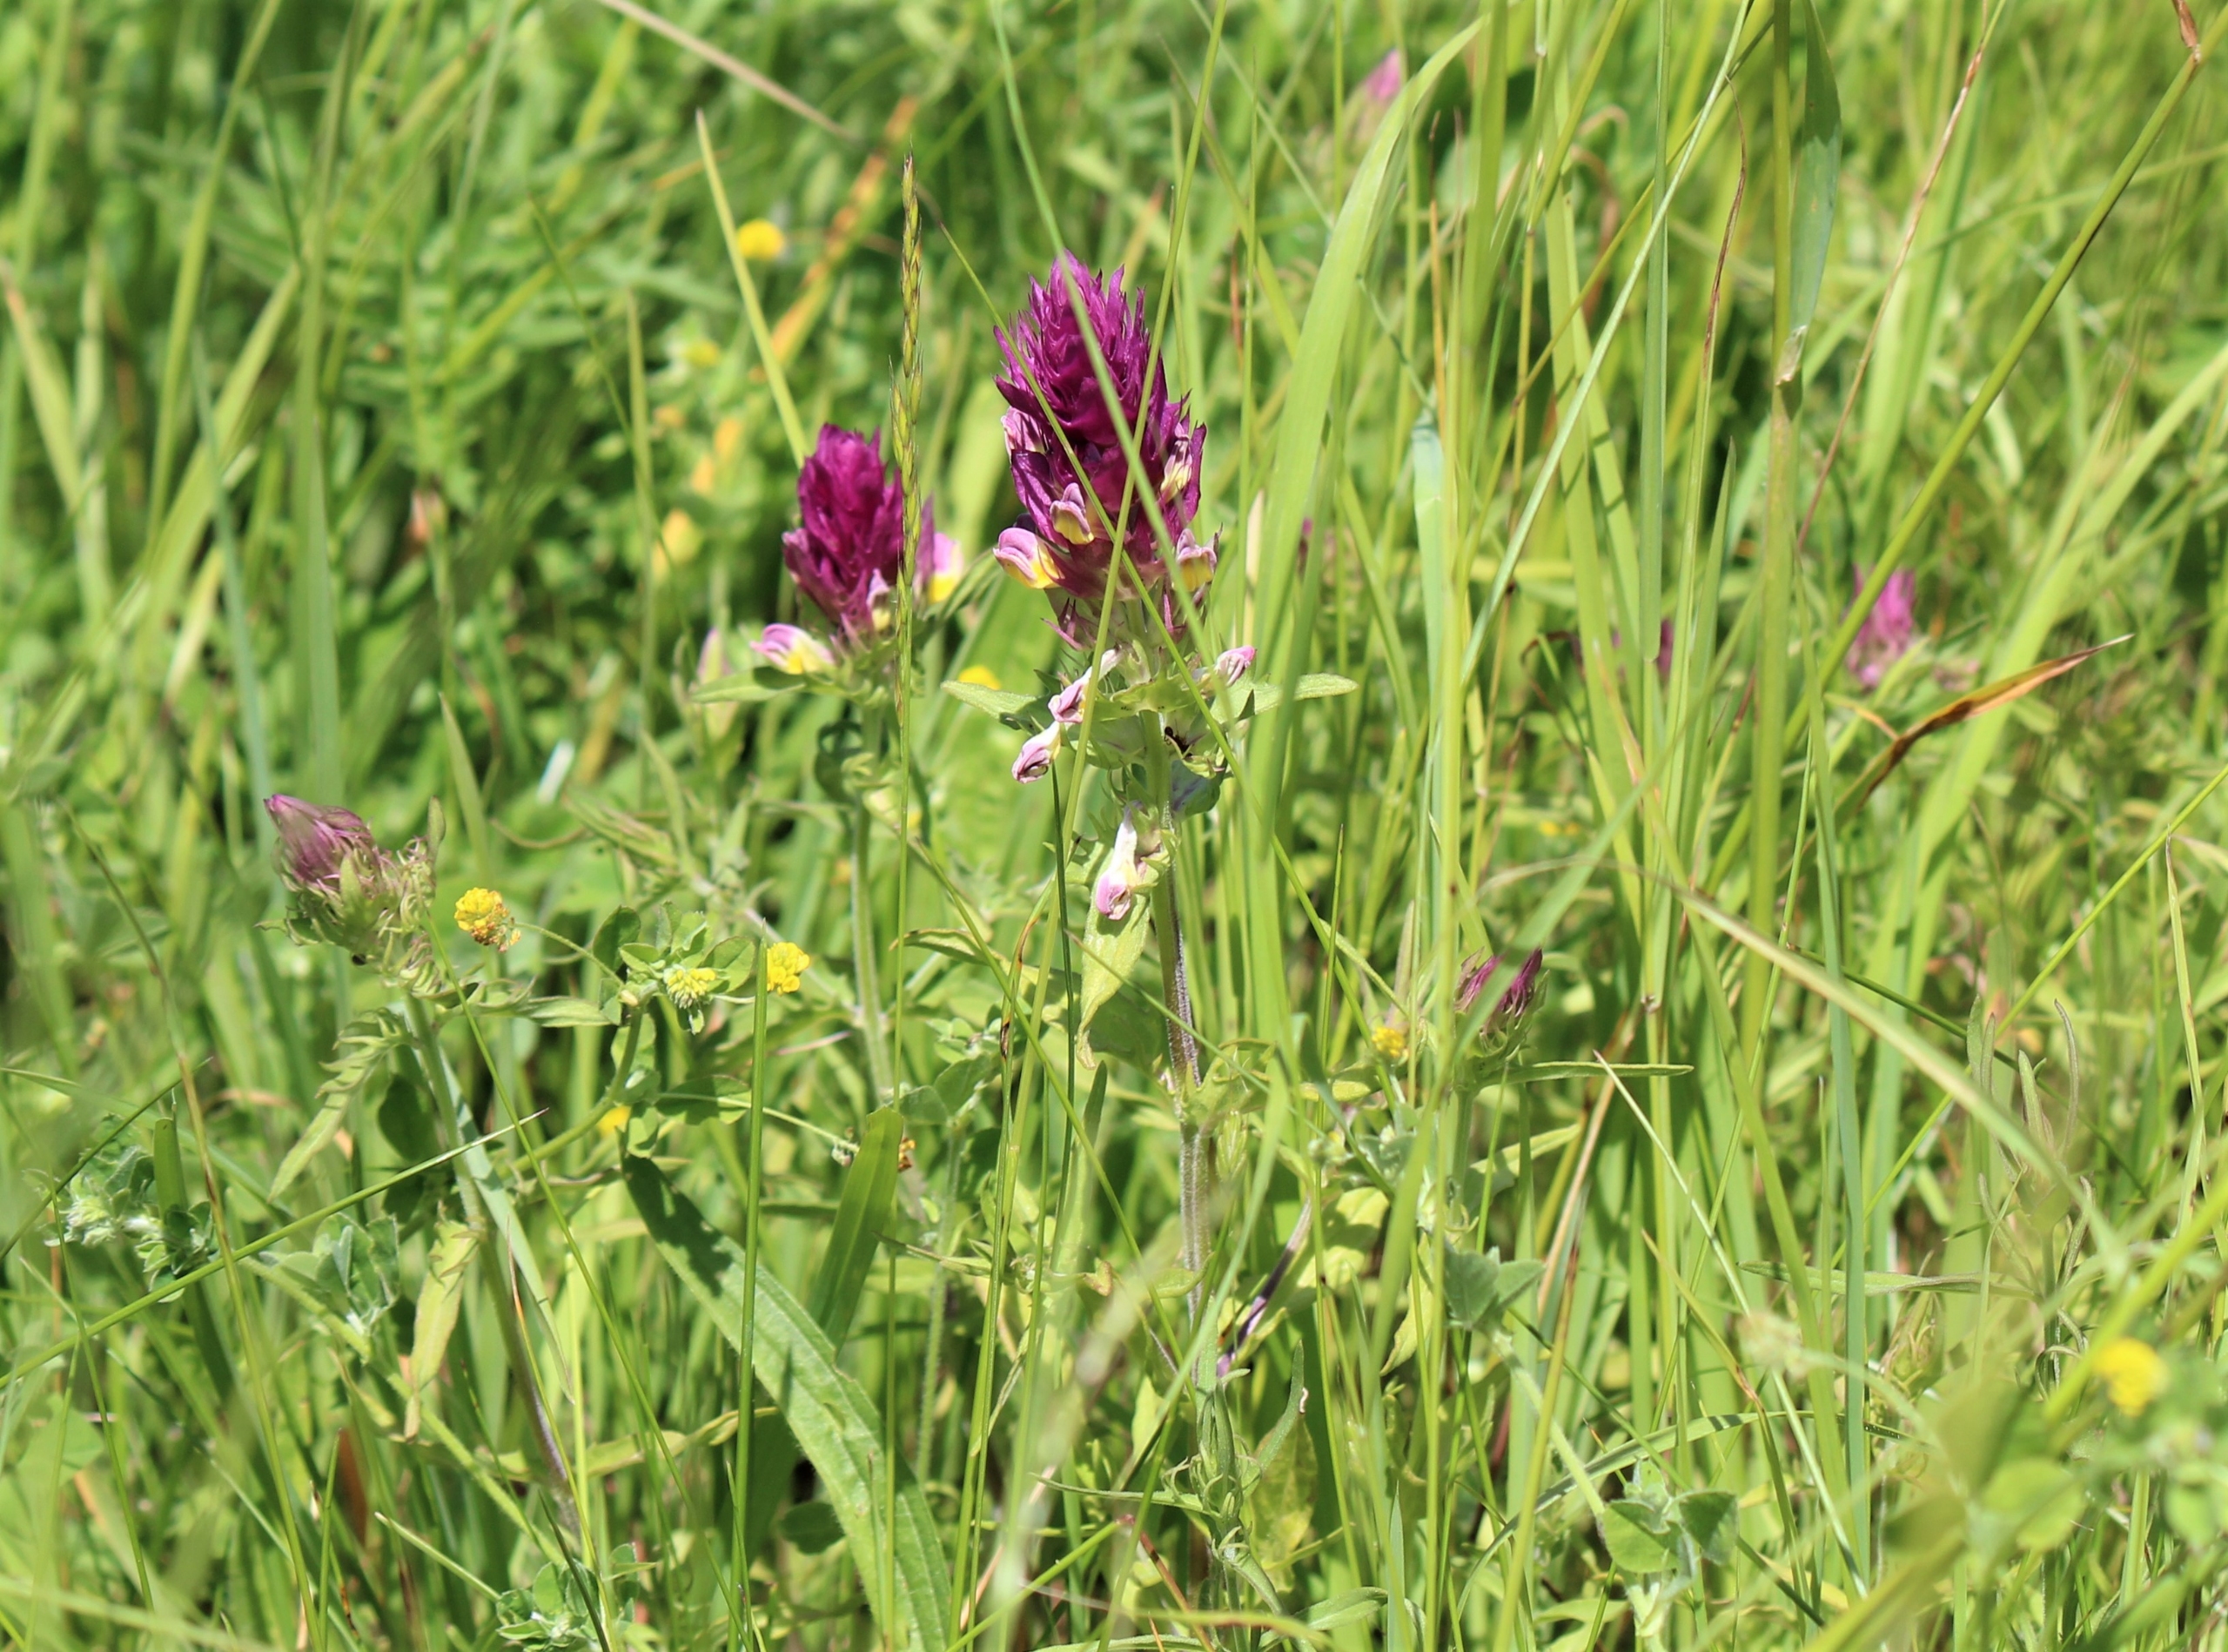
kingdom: Plantae
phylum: Tracheophyta
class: Magnoliopsida
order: Lamiales
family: Orobanchaceae
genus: Melampyrum
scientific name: Melampyrum arvense
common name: Ager-kohvede
